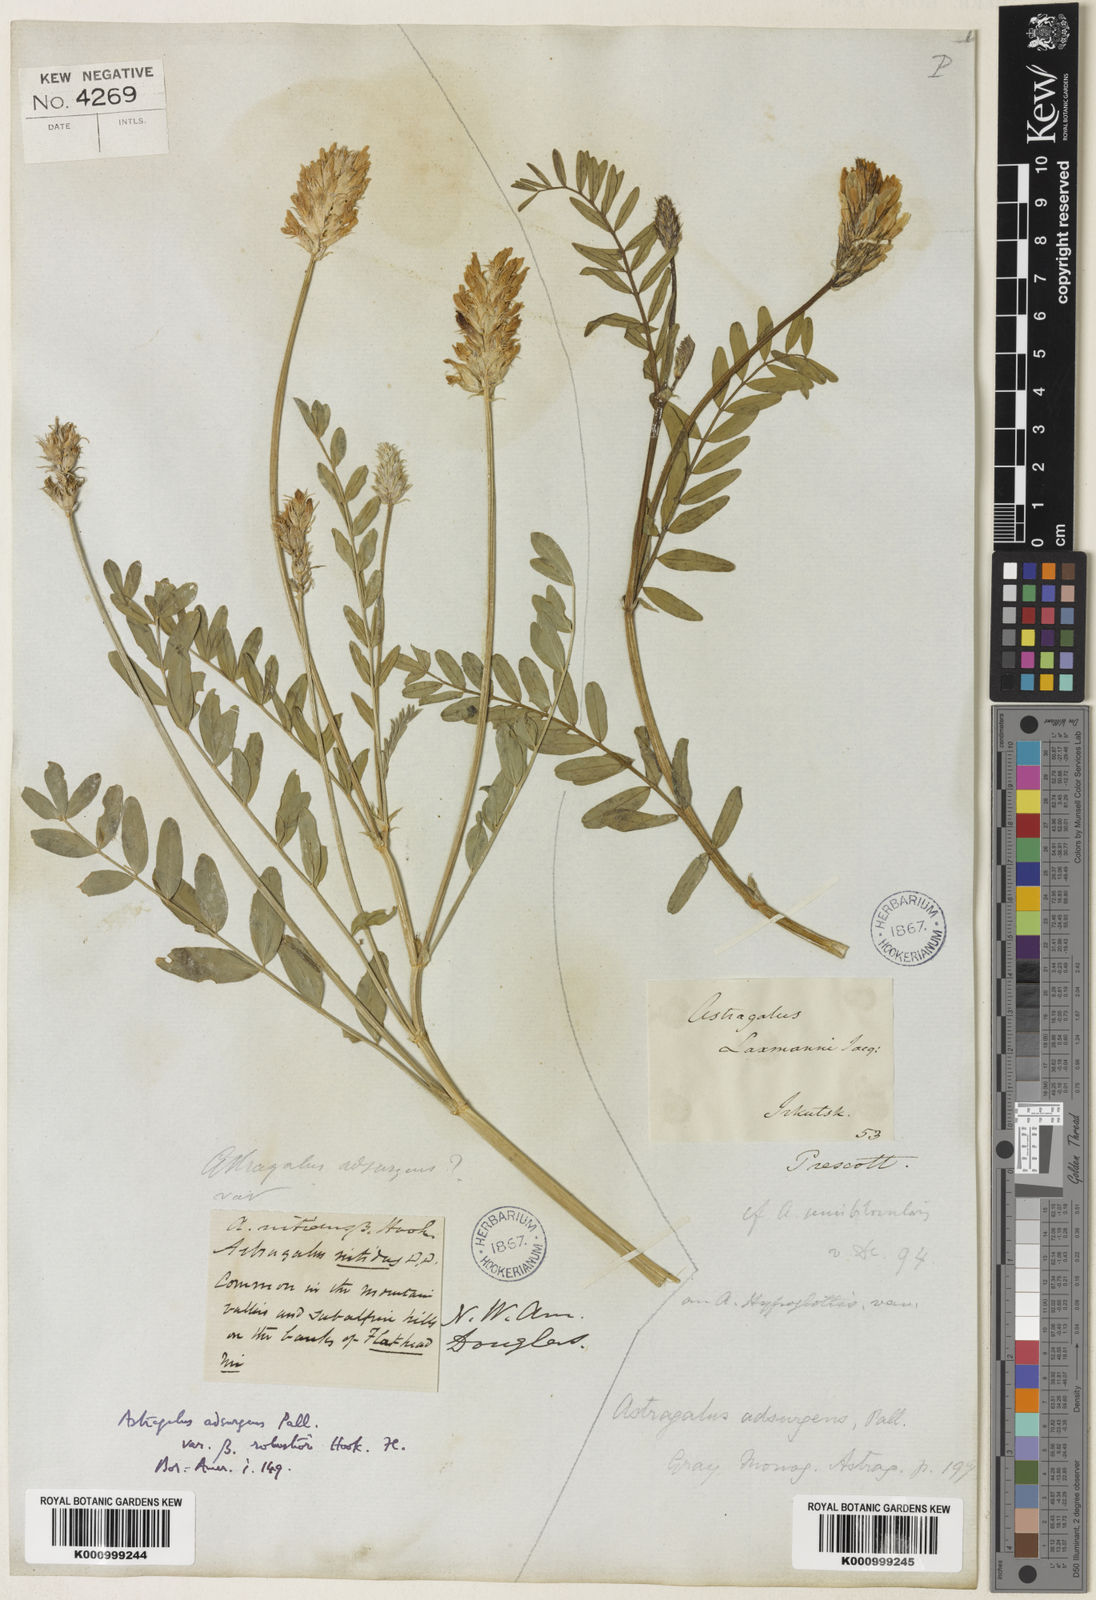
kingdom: Plantae
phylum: Tracheophyta
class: Magnoliopsida
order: Fabales
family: Fabaceae
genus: Astragalus
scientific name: Astragalus laxmannii
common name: Laxmann's milk-vetch
